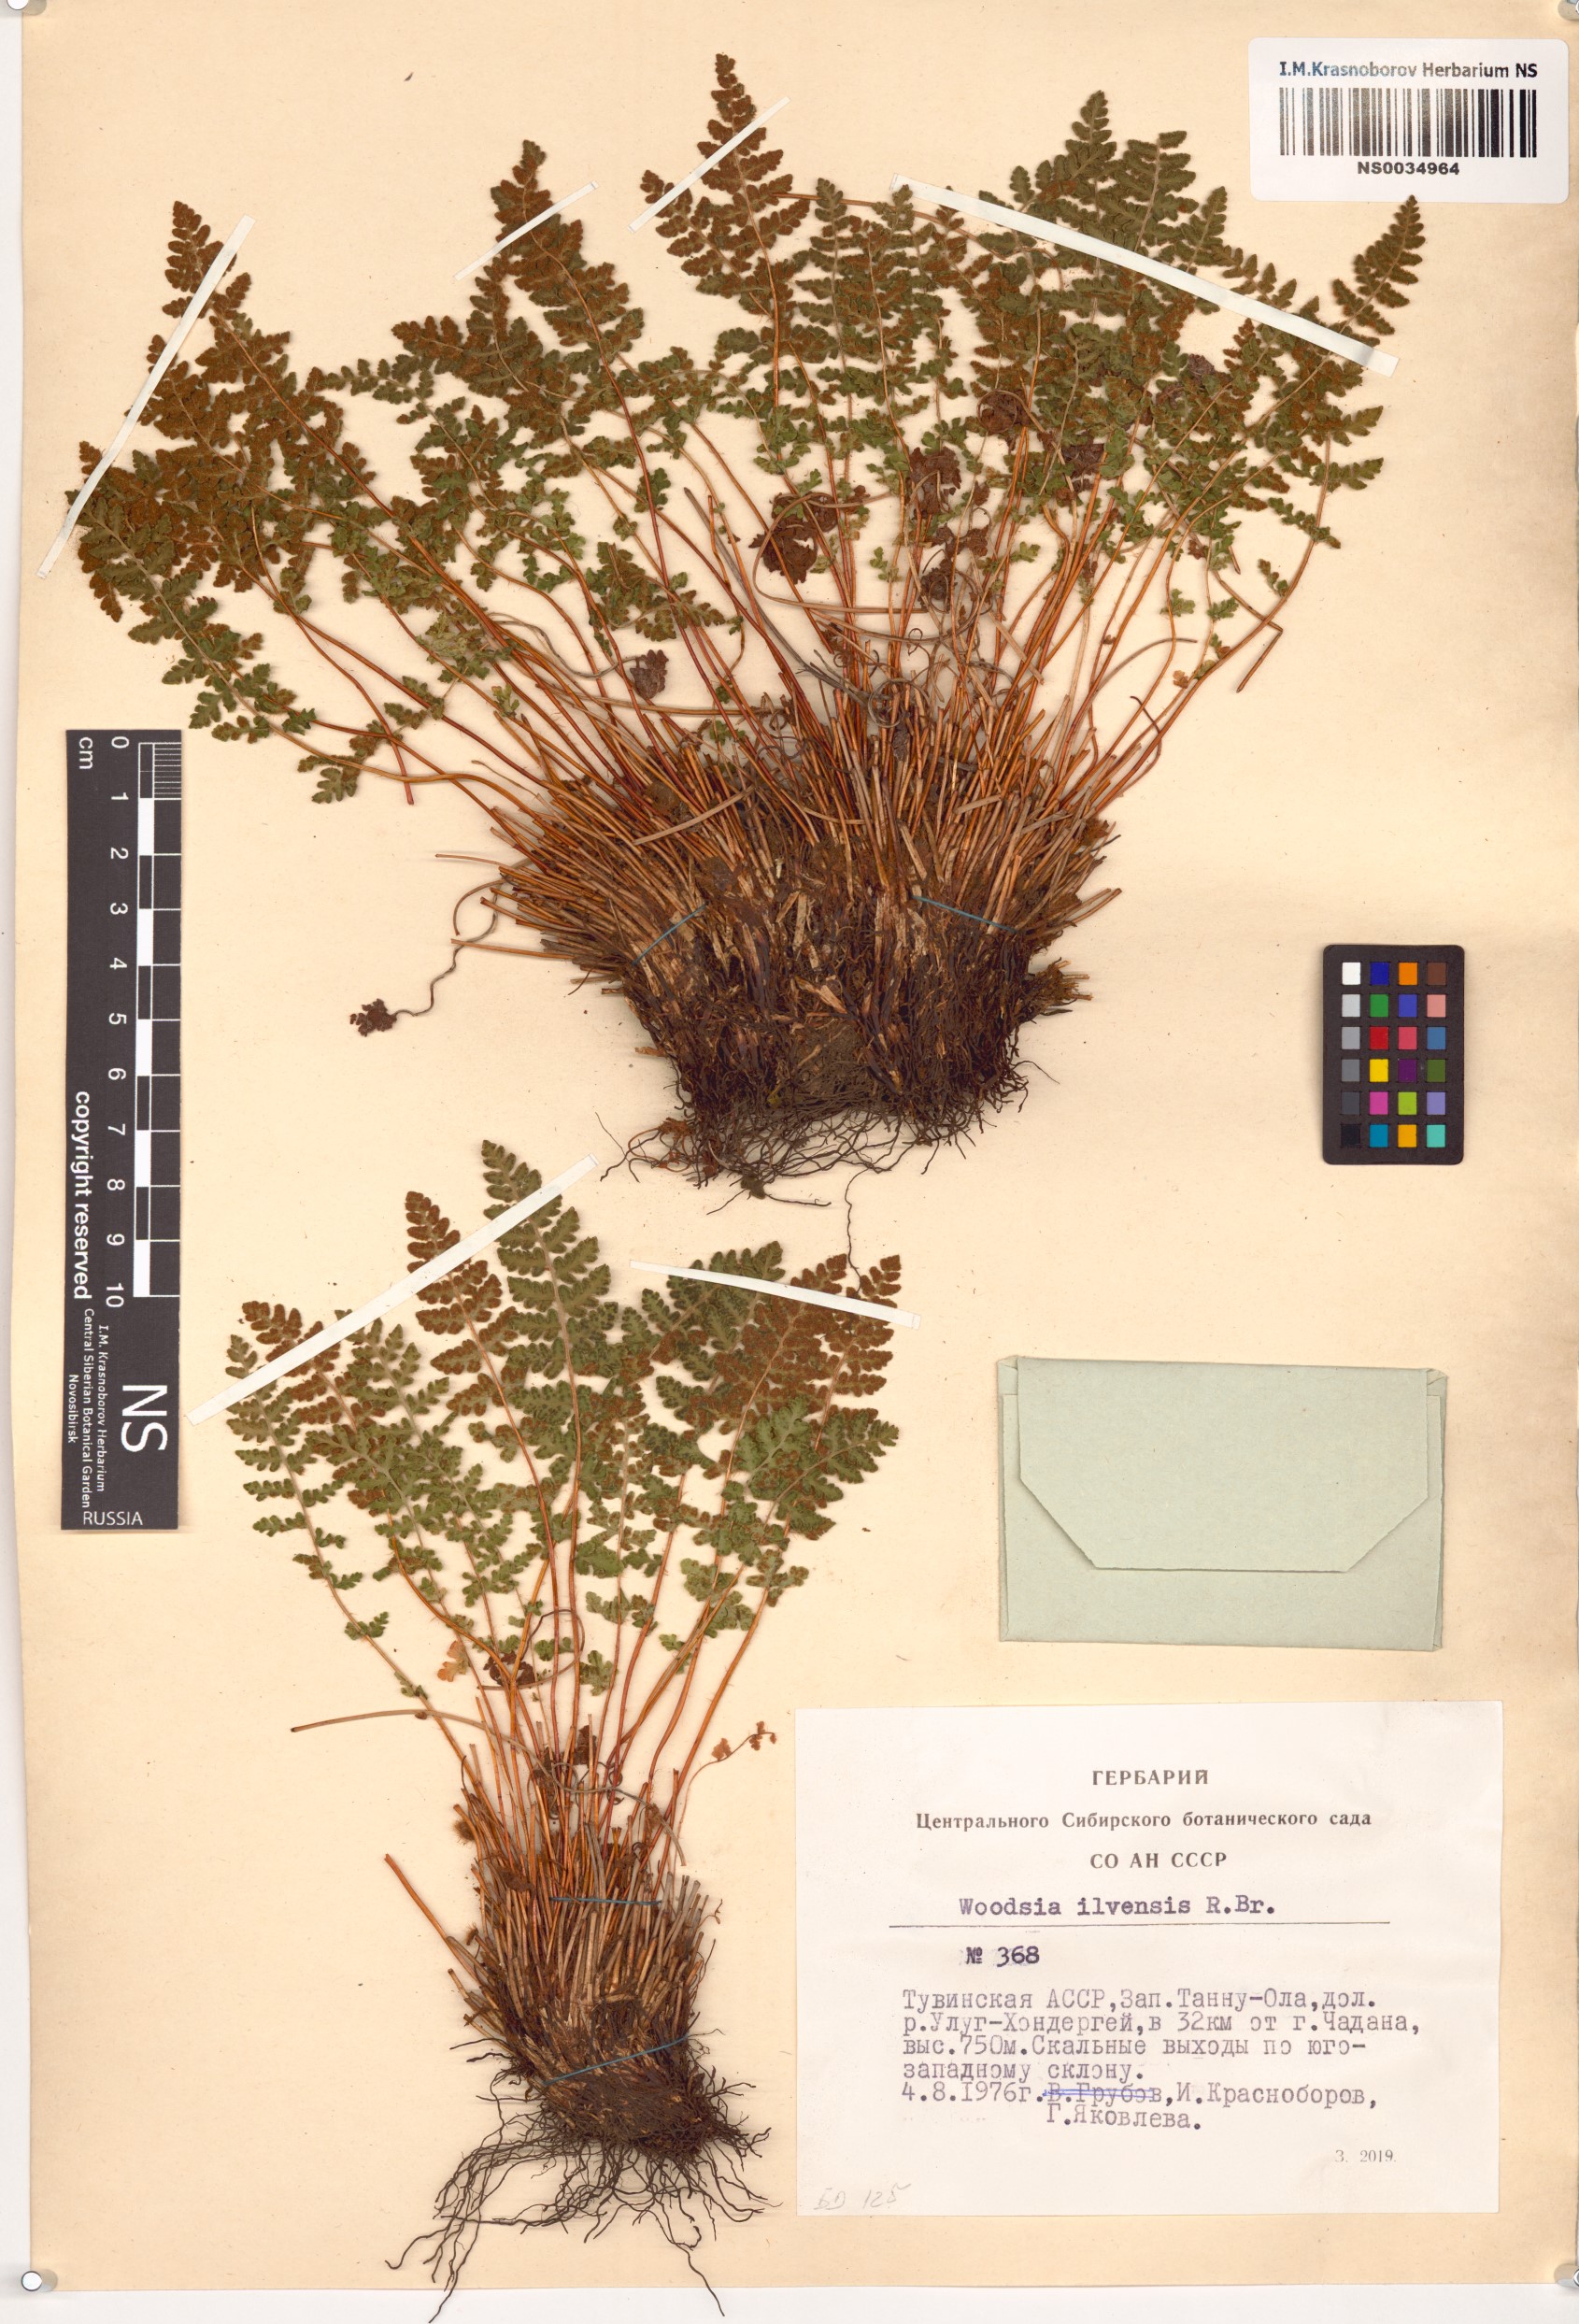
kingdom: Plantae
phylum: Tracheophyta
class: Polypodiopsida
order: Polypodiales
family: Woodsiaceae
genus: Woodsia
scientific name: Woodsia ilvensis
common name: Fragrant woodsia
